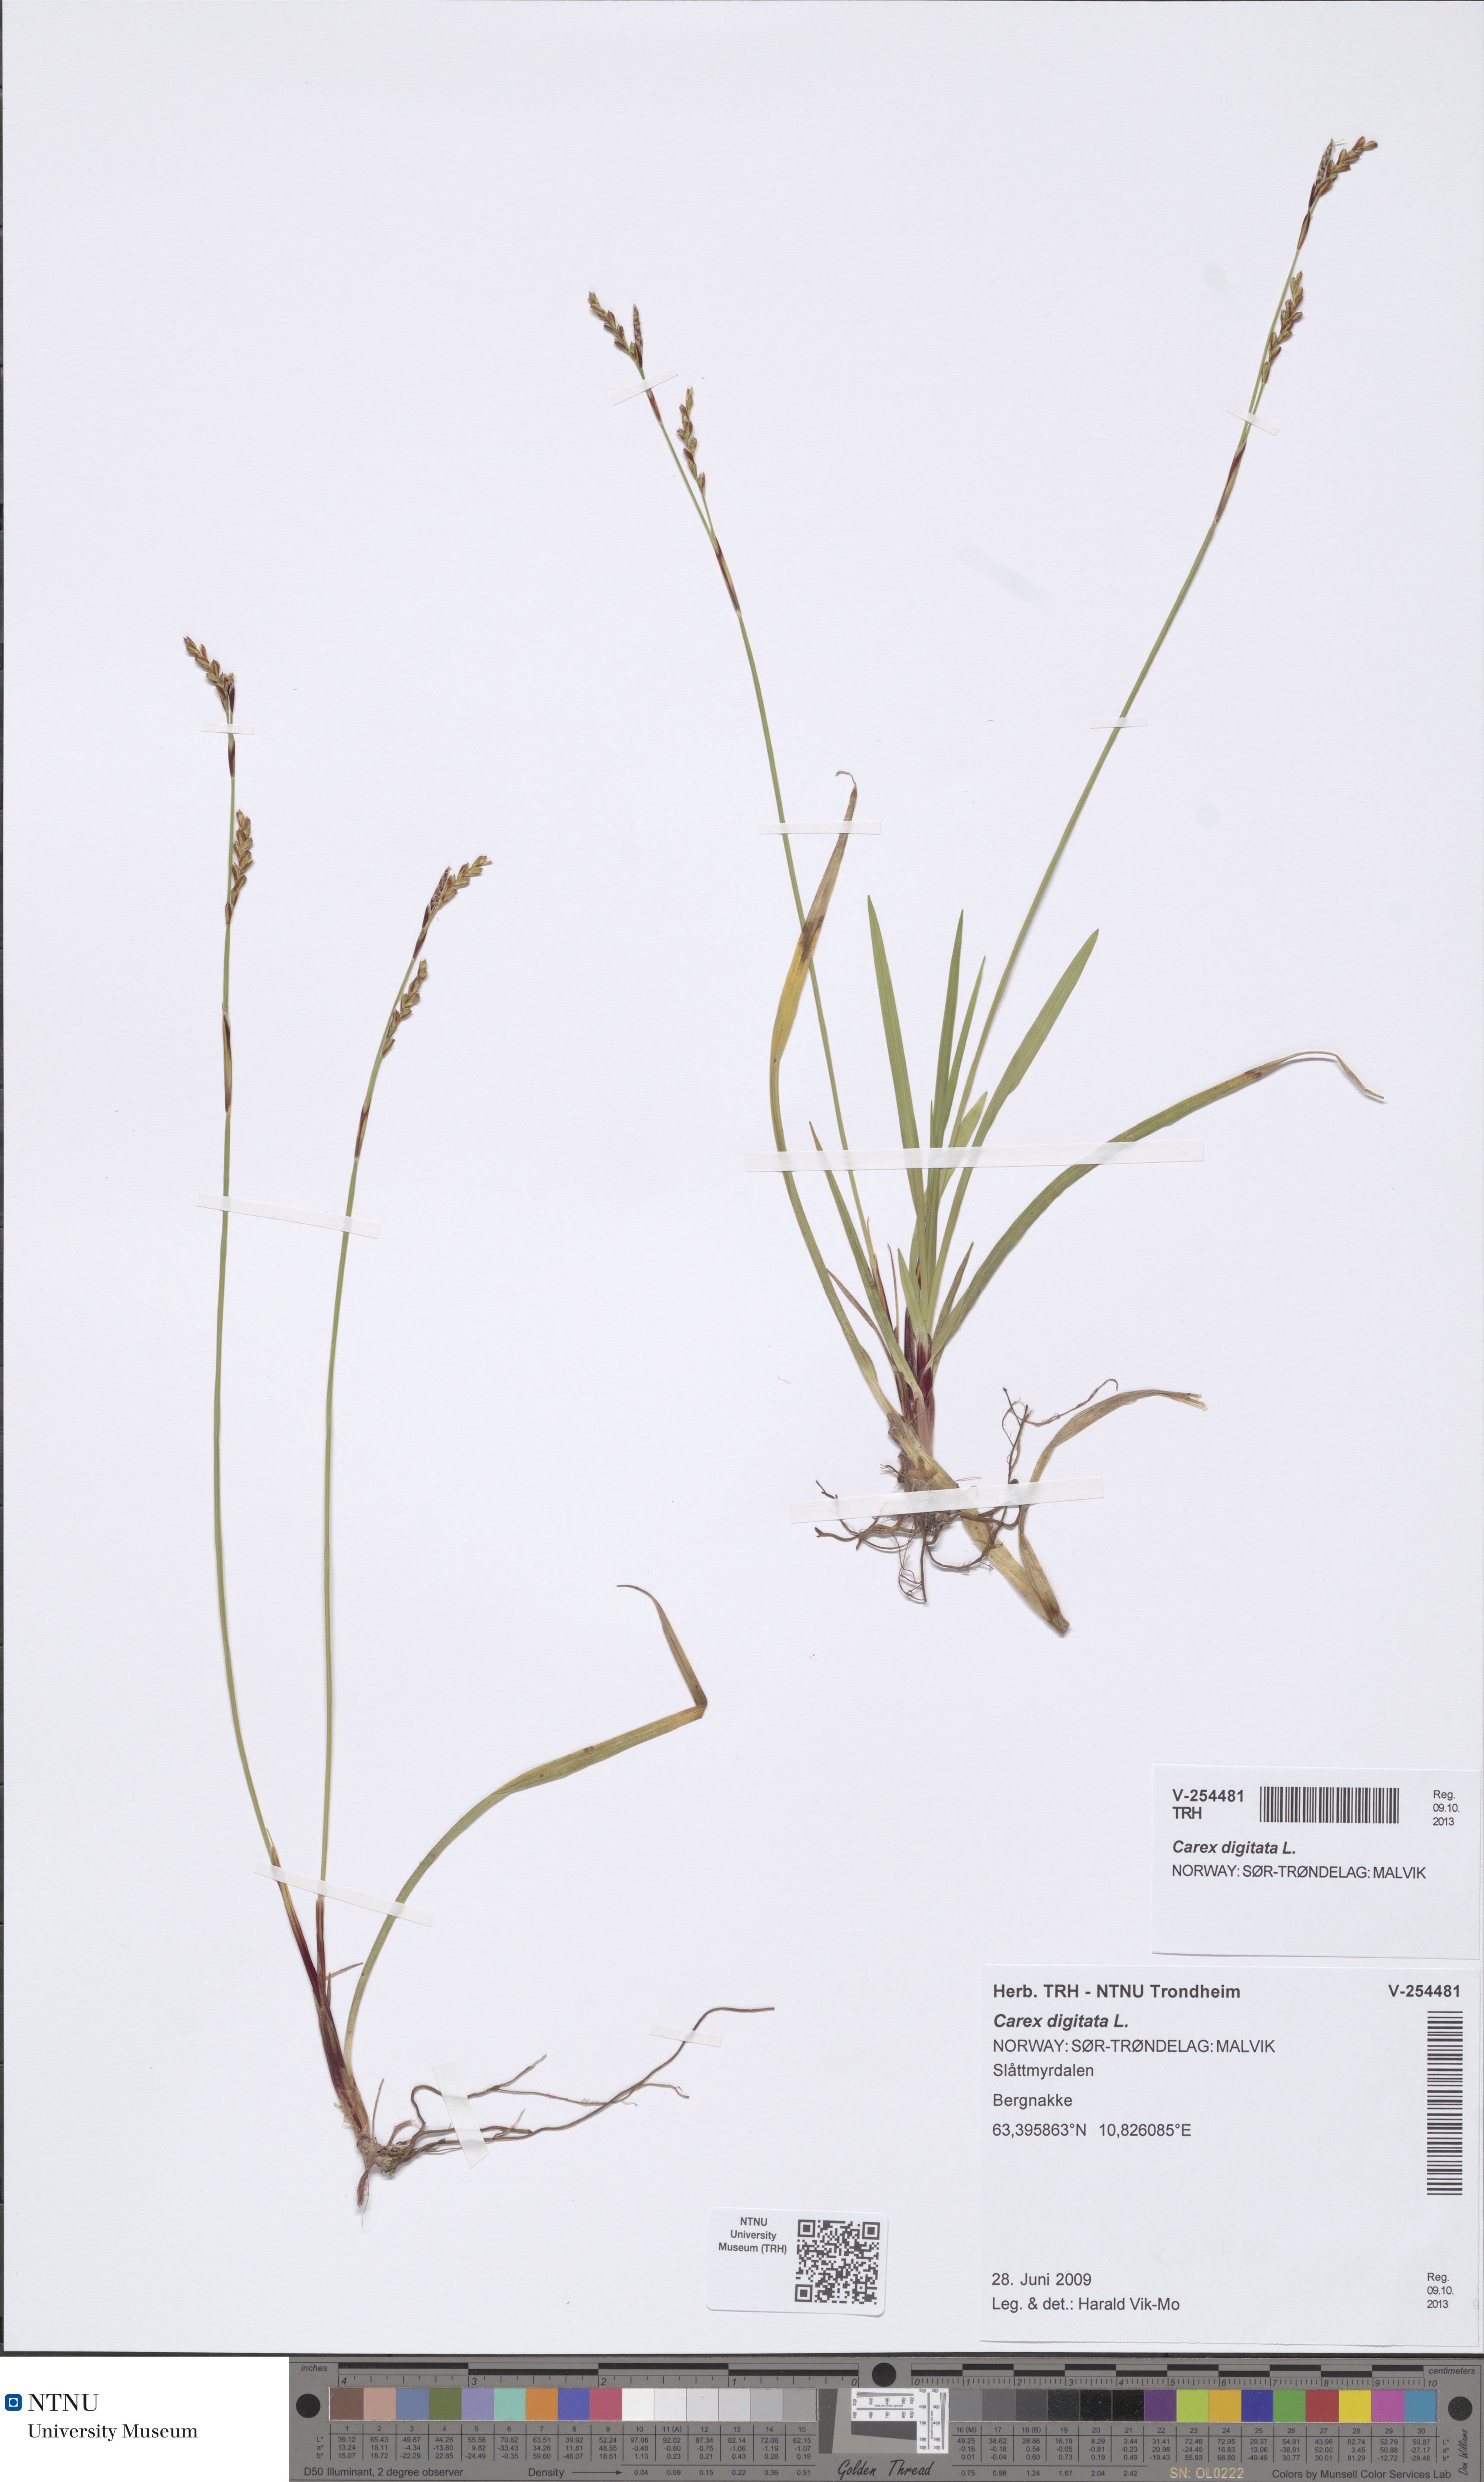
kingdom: Plantae
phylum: Tracheophyta
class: Liliopsida
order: Poales
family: Cyperaceae
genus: Carex
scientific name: Carex digitata
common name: Fingered sedge
